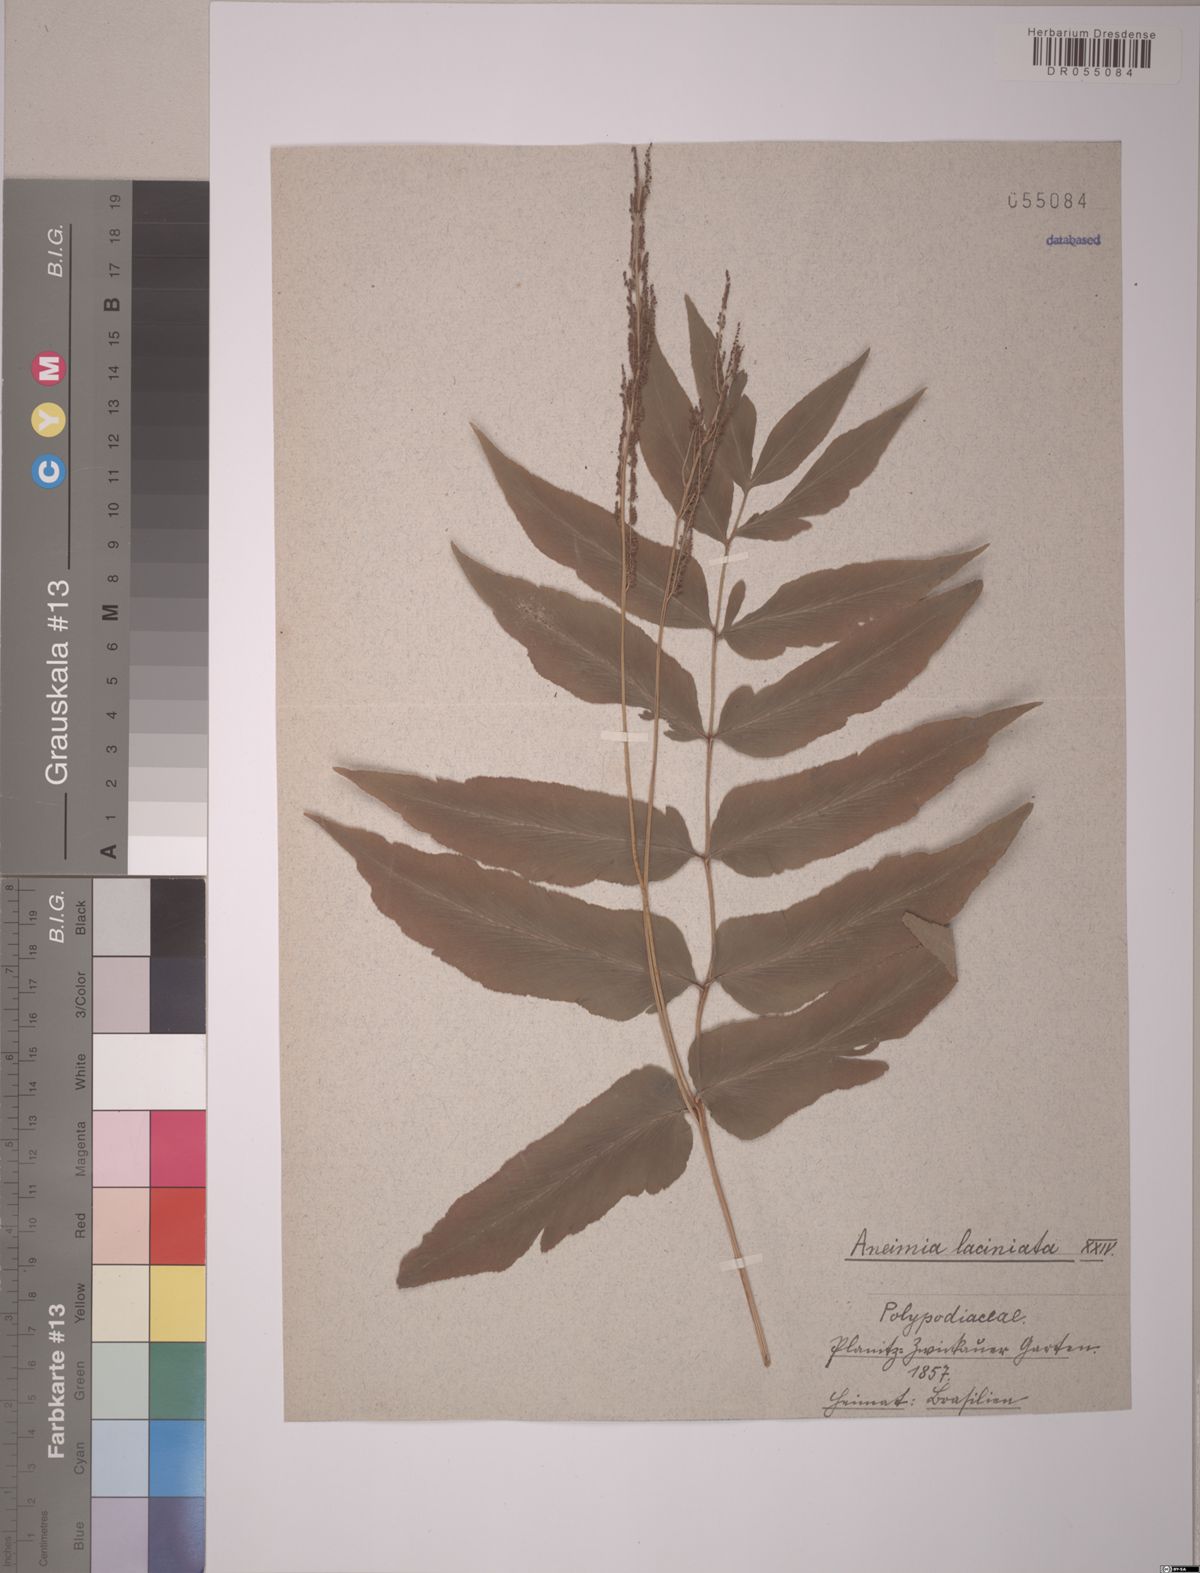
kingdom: Plantae
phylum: Tracheophyta
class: Polypodiopsida
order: Schizaeales
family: Anemiaceae
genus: Anemia
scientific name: Anemia phyllitidis
